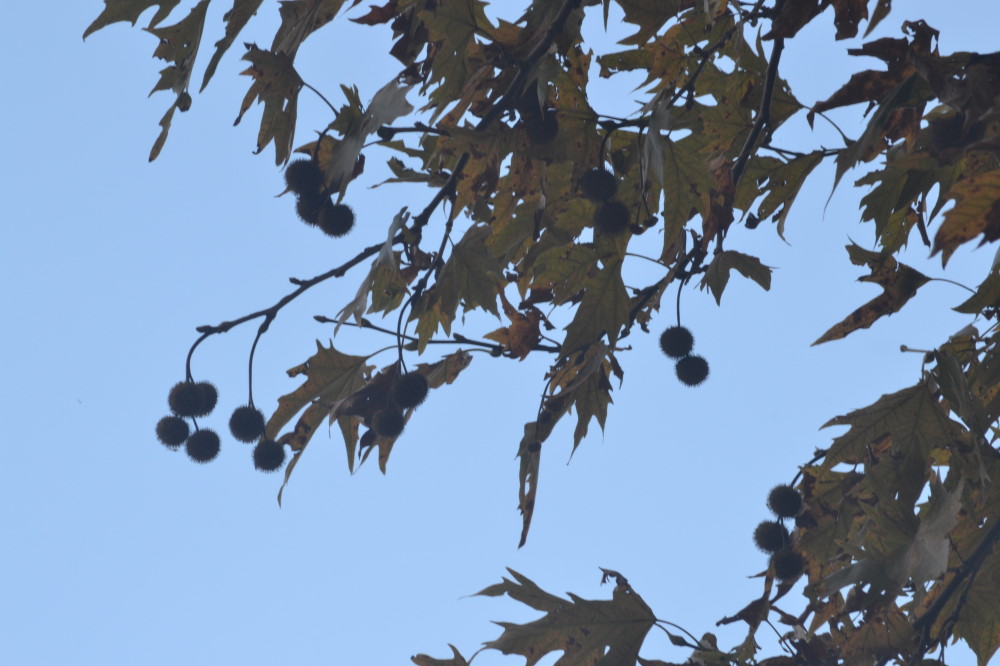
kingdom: Plantae
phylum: Tracheophyta
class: Magnoliopsida
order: Proteales
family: Platanaceae
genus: Platanus
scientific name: Platanus
